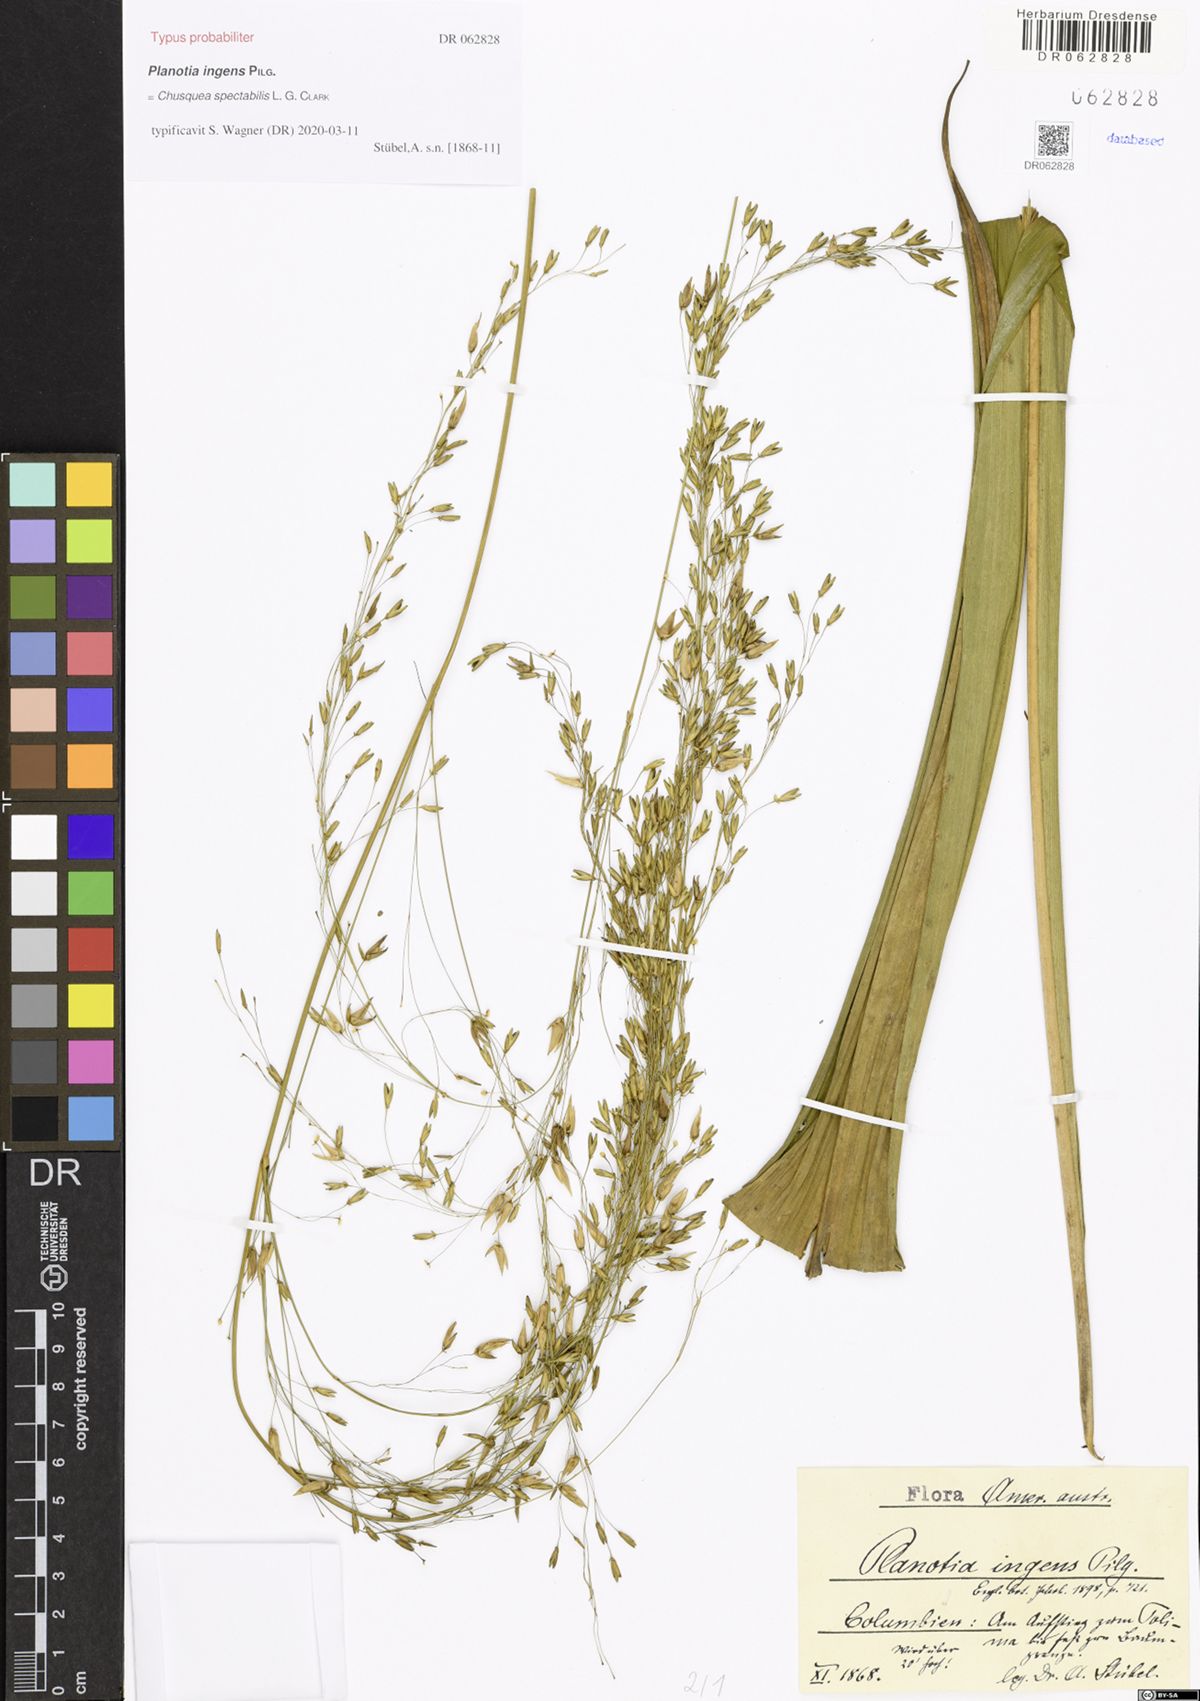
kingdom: Plantae
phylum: Tracheophyta
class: Liliopsida
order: Poales
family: Poaceae
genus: Chusquea
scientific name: Chusquea spectabilis
